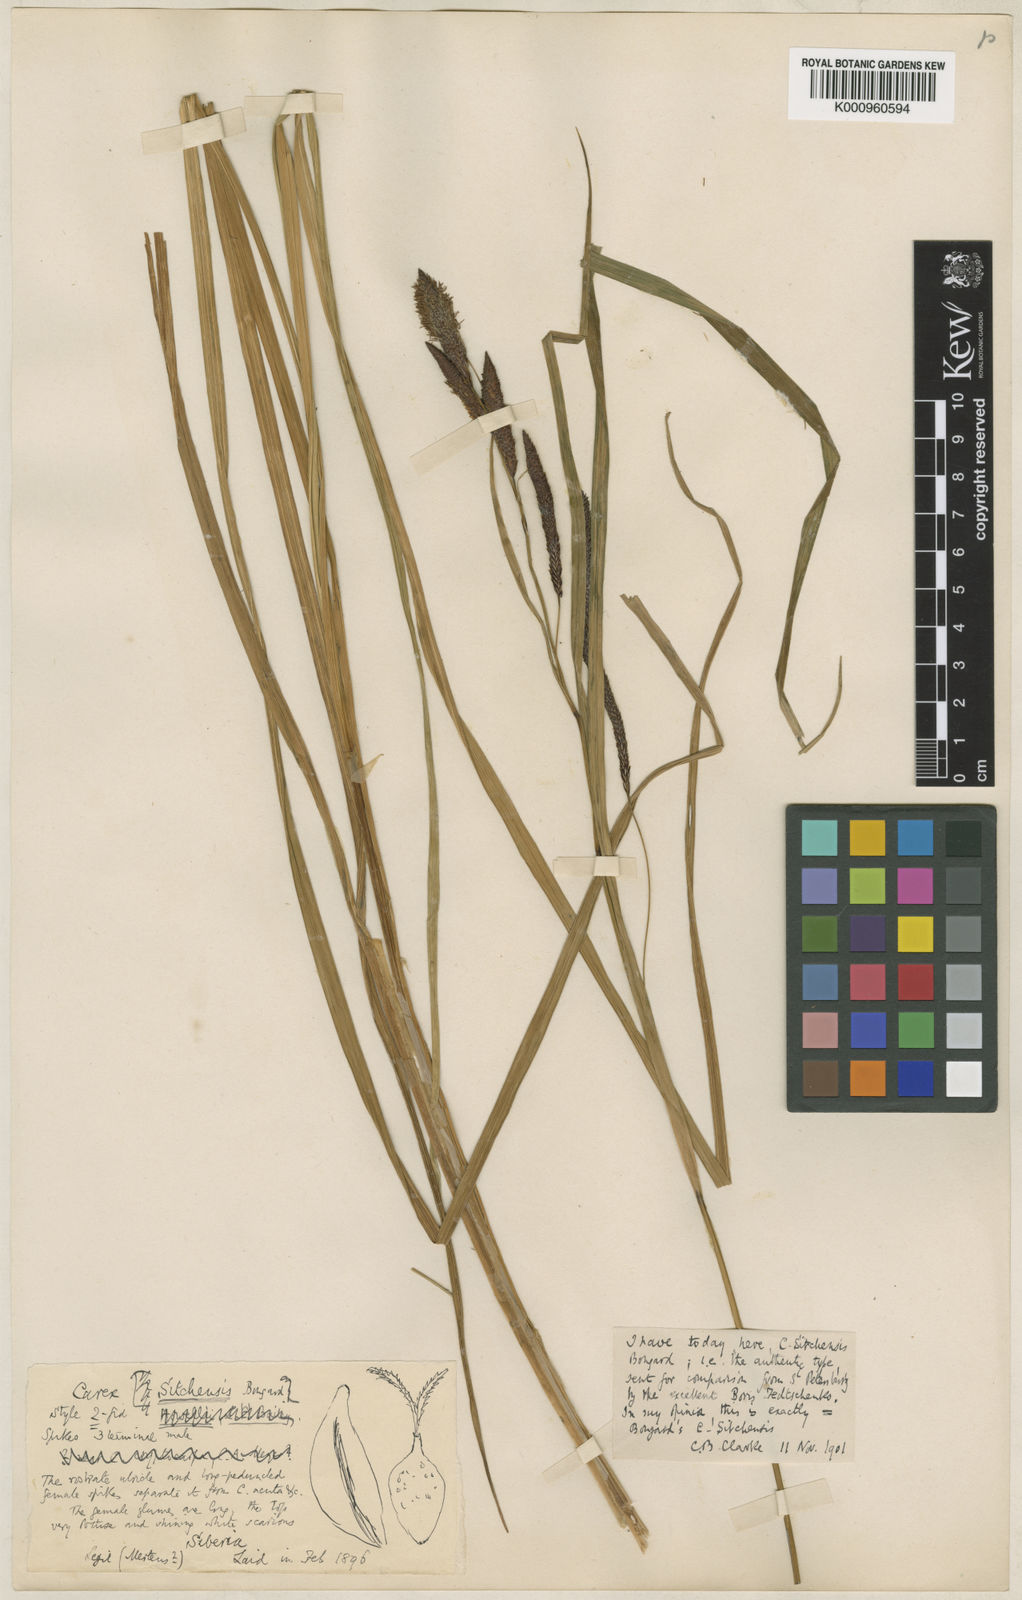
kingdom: Plantae
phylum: Tracheophyta
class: Liliopsida
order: Poales
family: Cyperaceae
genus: Carex
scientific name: Carex aquatilis
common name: Water sedge
